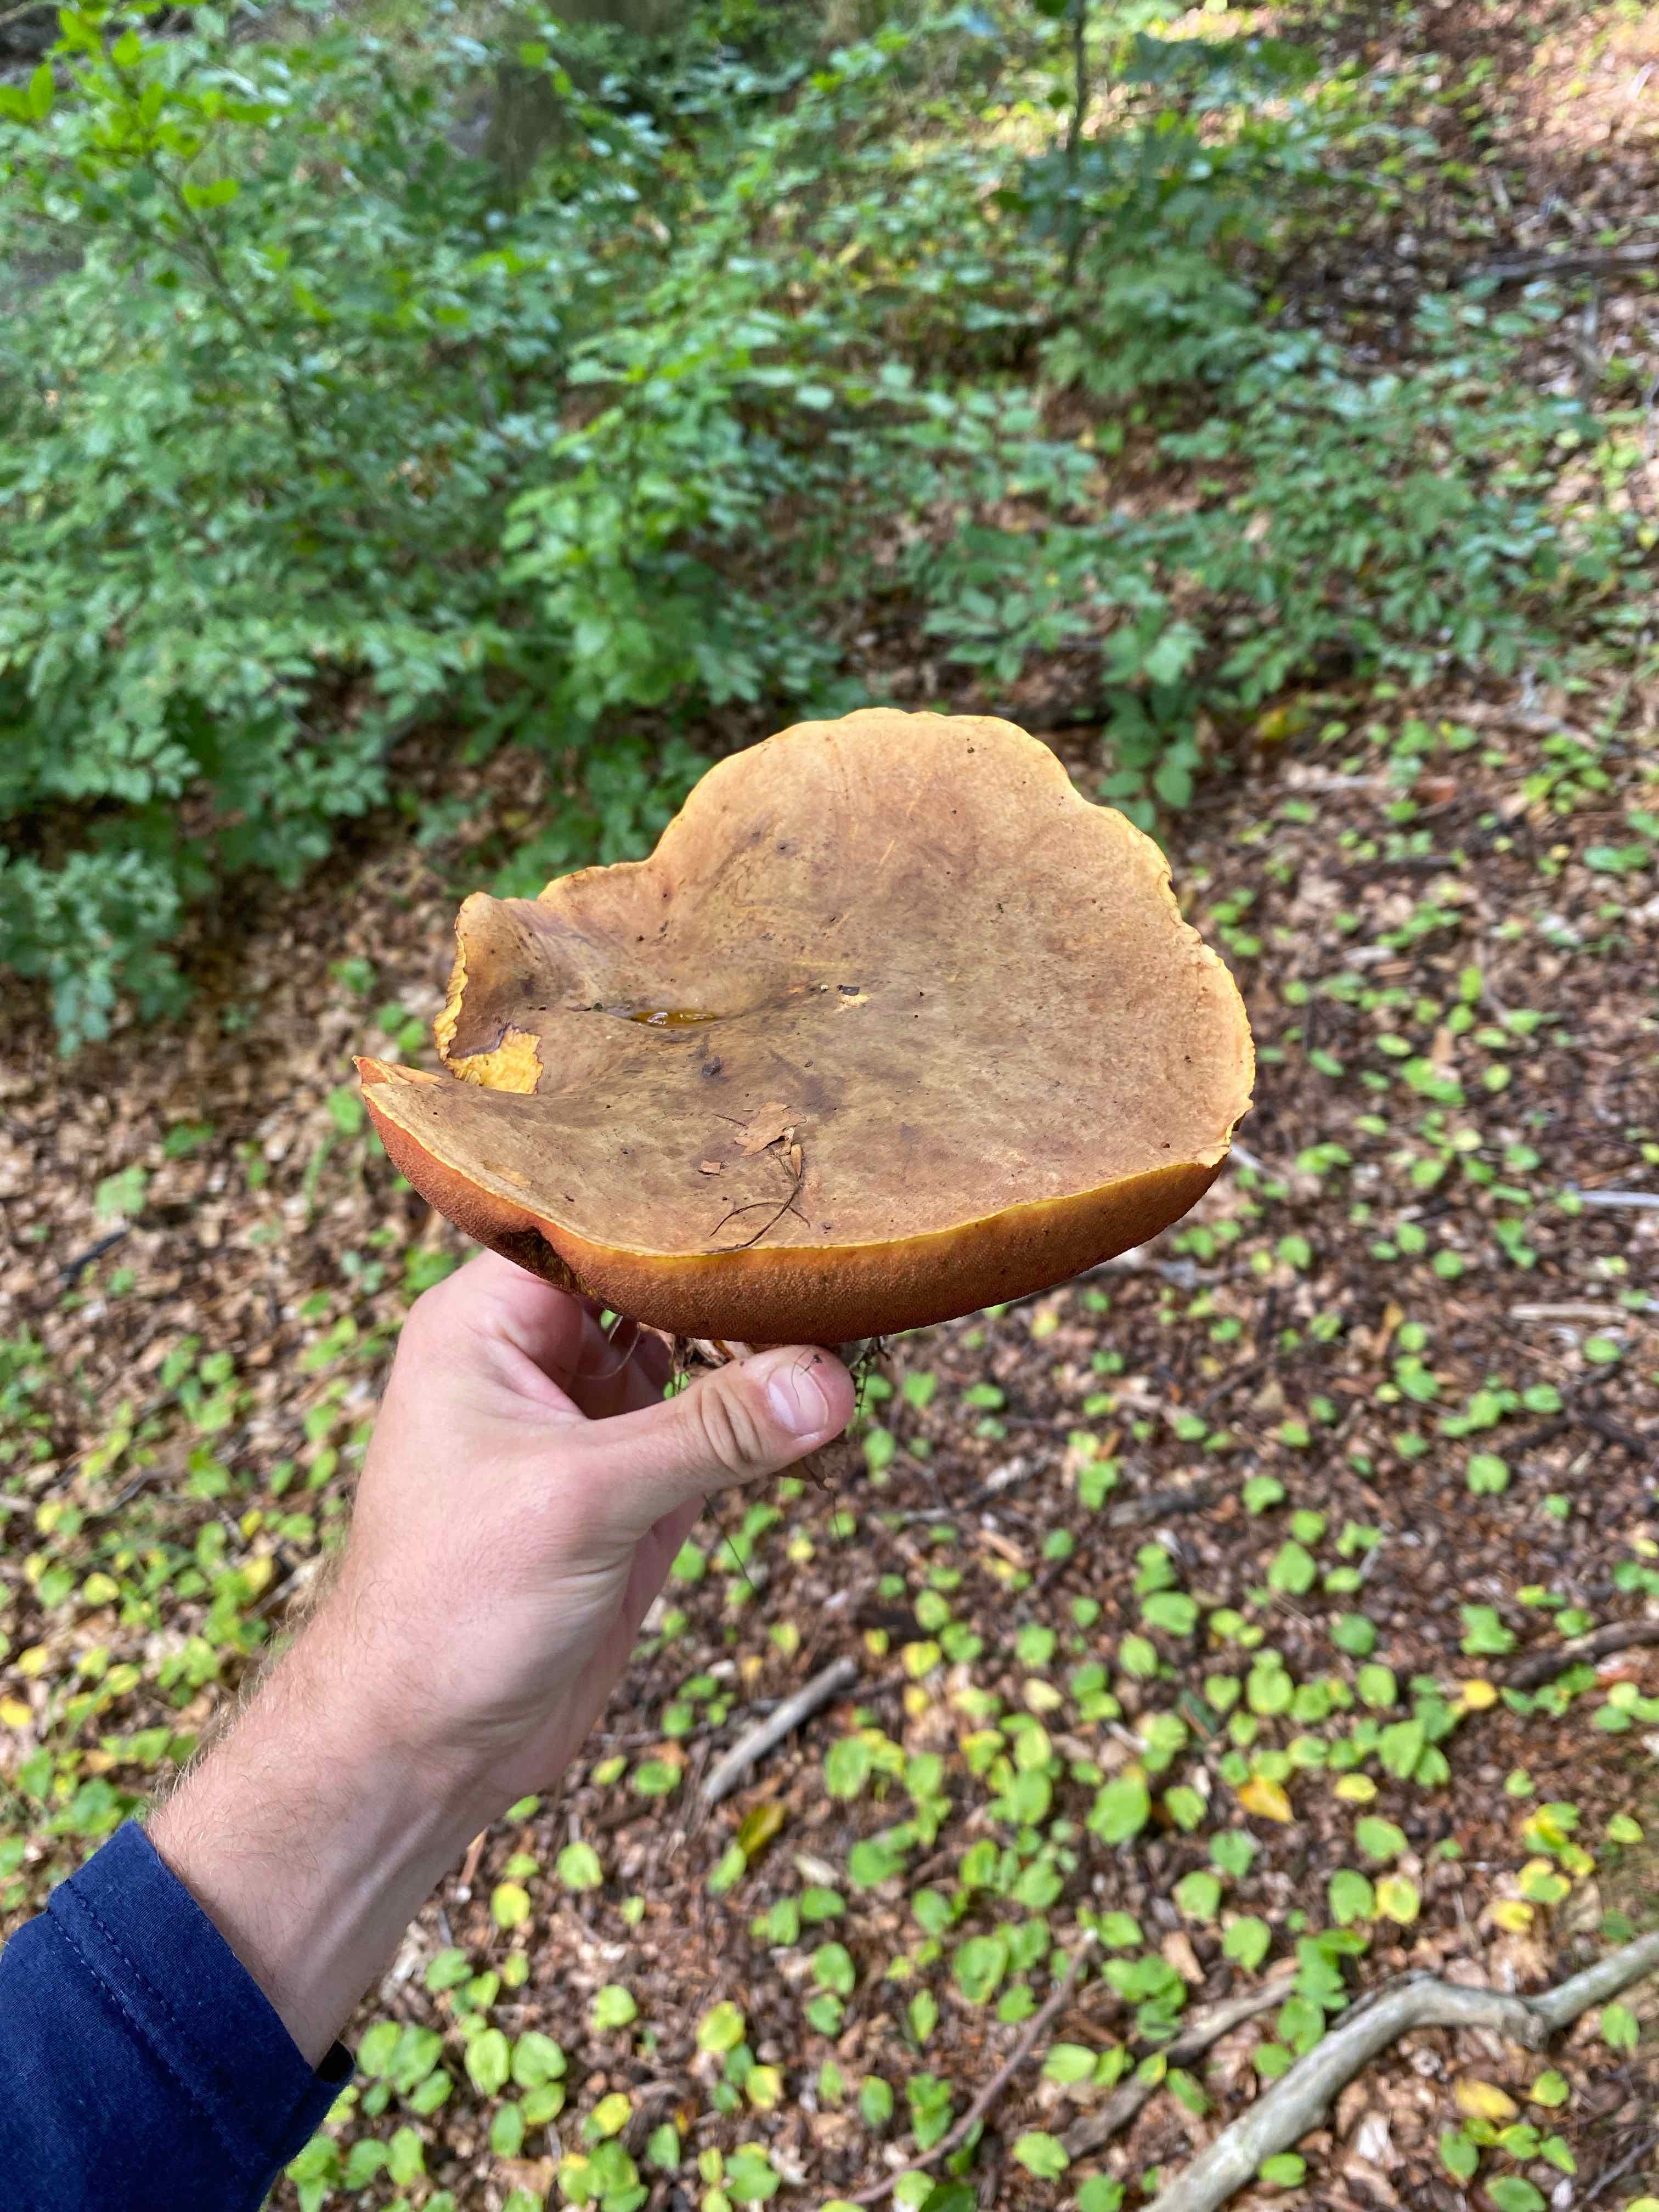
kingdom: Fungi
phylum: Basidiomycota
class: Agaricomycetes
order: Boletales
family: Boletaceae
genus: Neoboletus
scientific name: Neoboletus erythropus
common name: punktstokket indigorørhat
